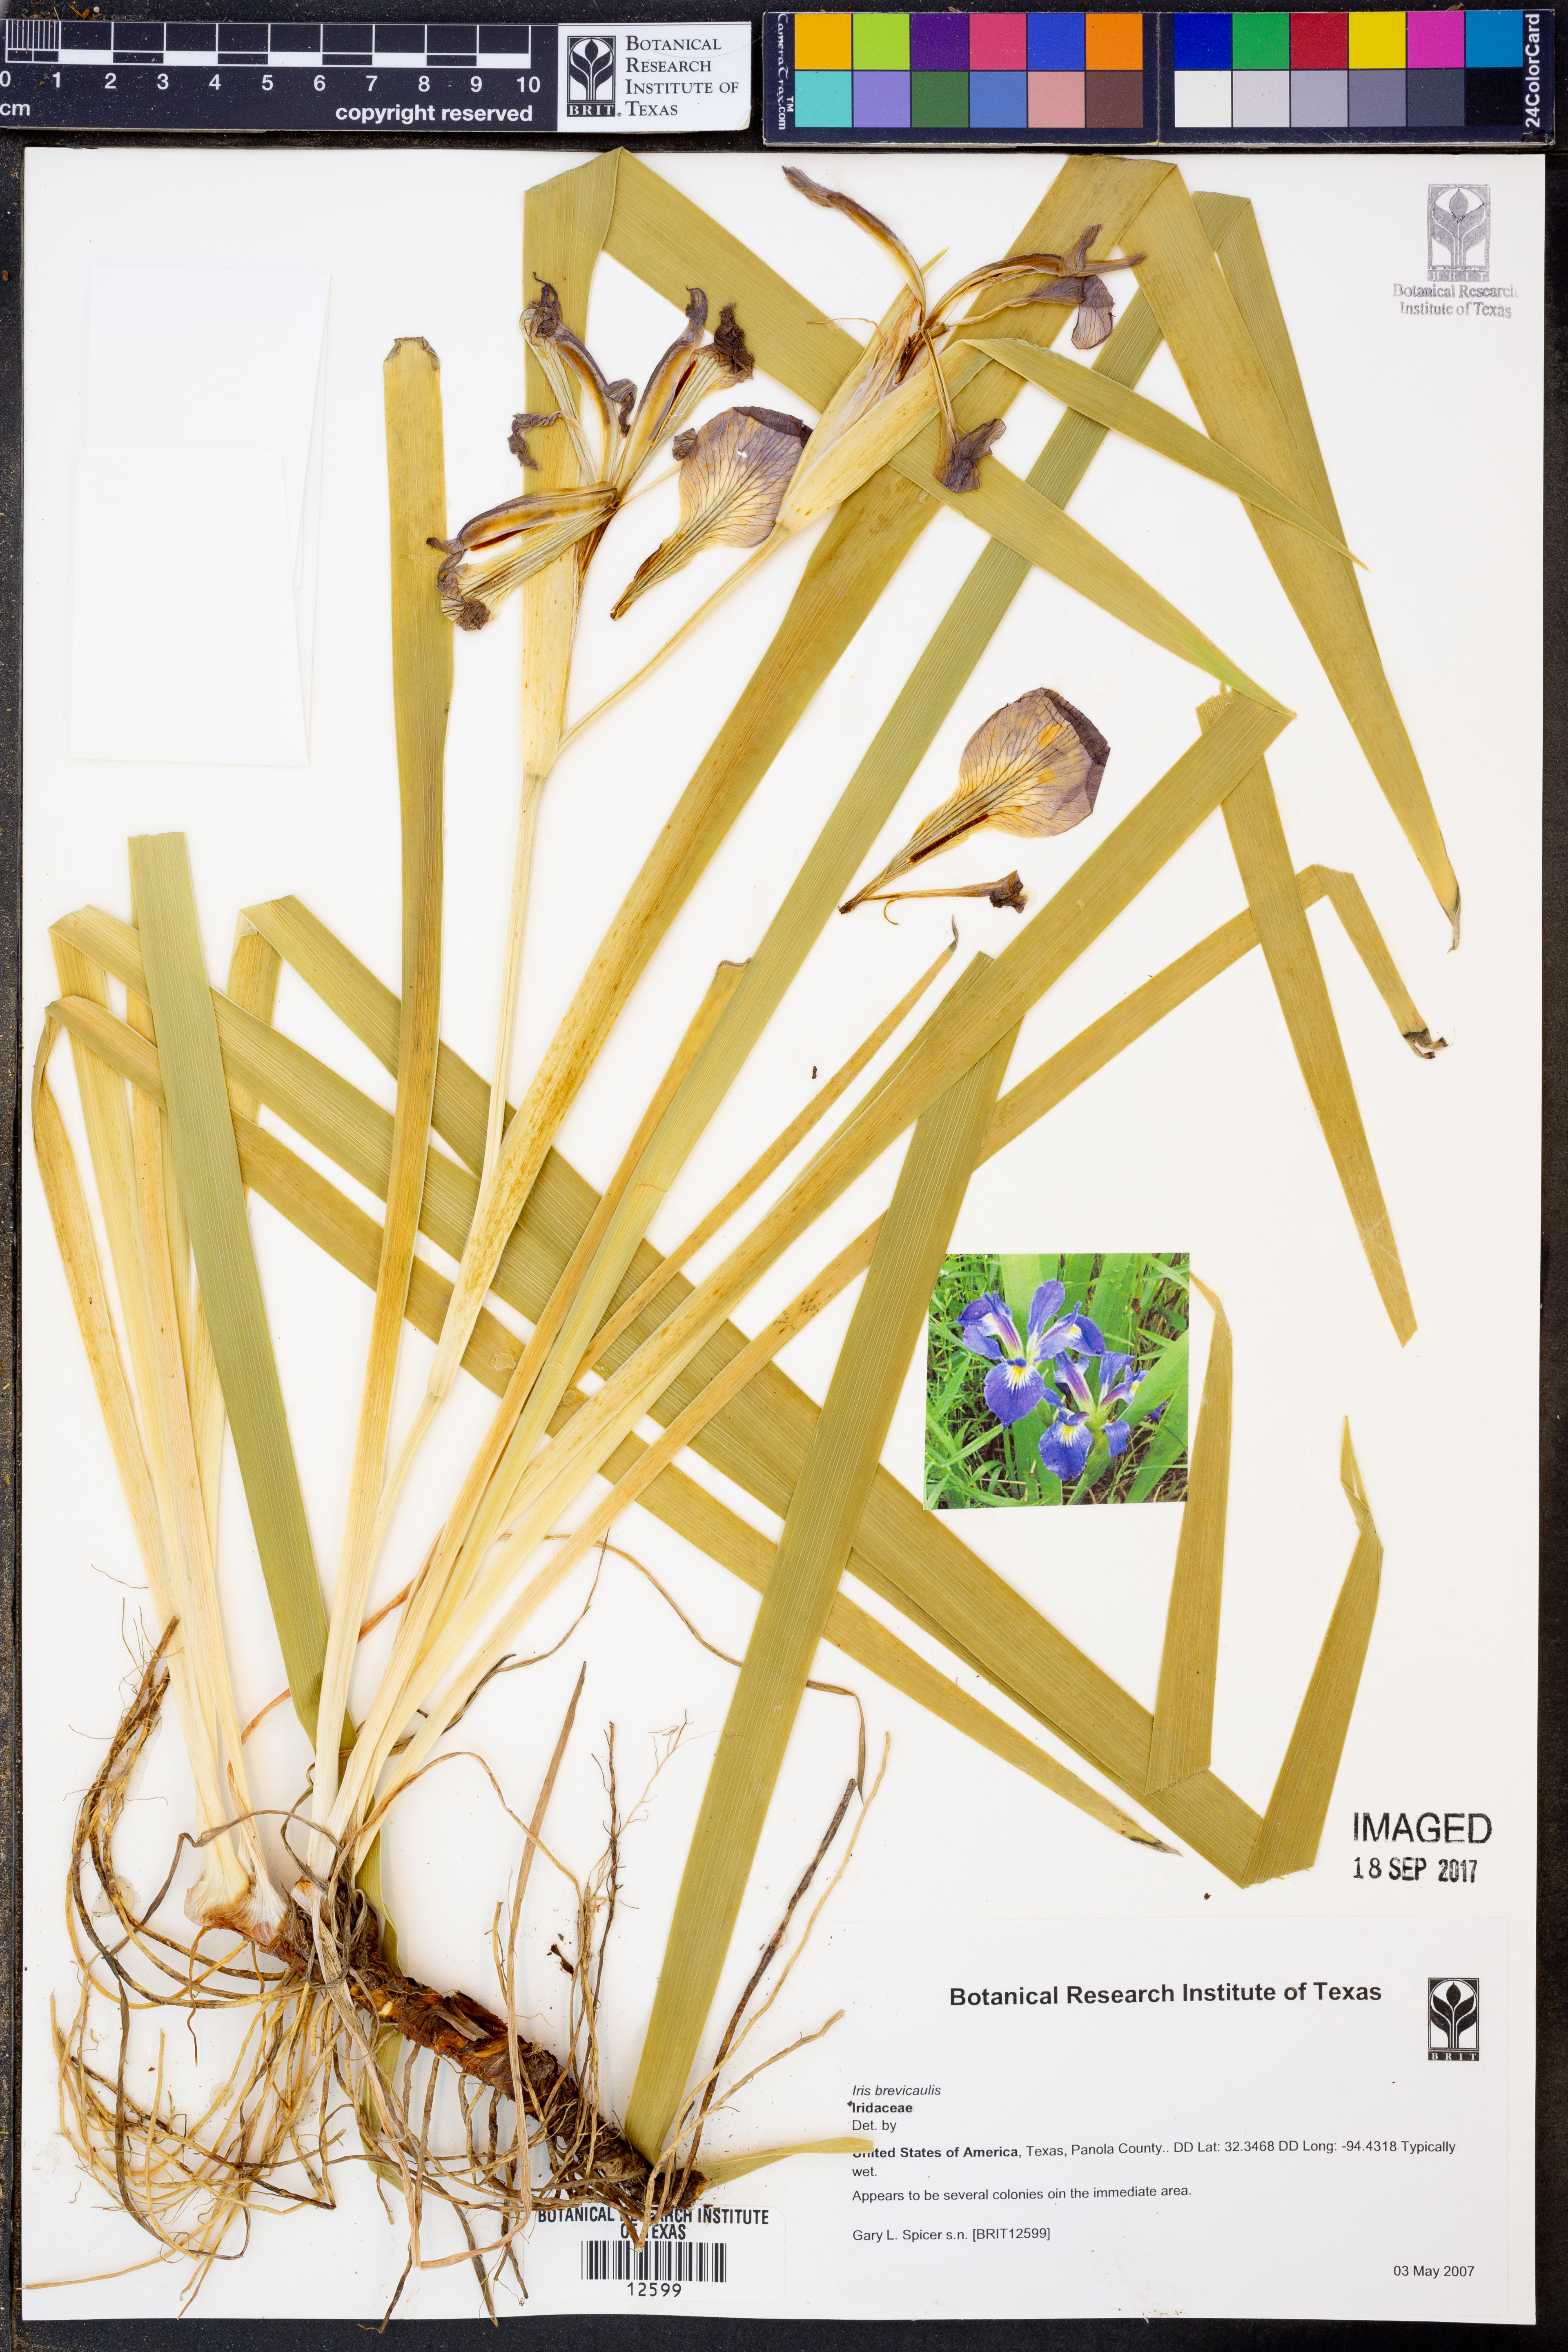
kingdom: Plantae
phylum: Tracheophyta
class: Liliopsida
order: Asparagales
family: Iridaceae
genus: Iris
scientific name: Iris brevicaulis
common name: Zigzag iris
